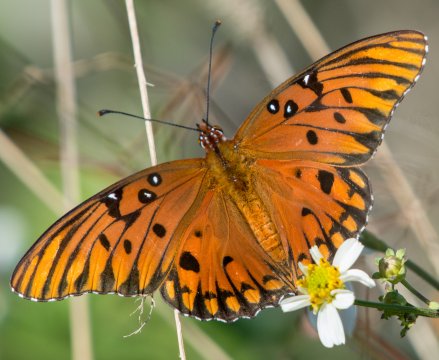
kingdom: Animalia
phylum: Arthropoda
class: Insecta
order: Lepidoptera
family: Nymphalidae
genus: Dione
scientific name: Dione vanillae
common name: Gulf Fritillary
